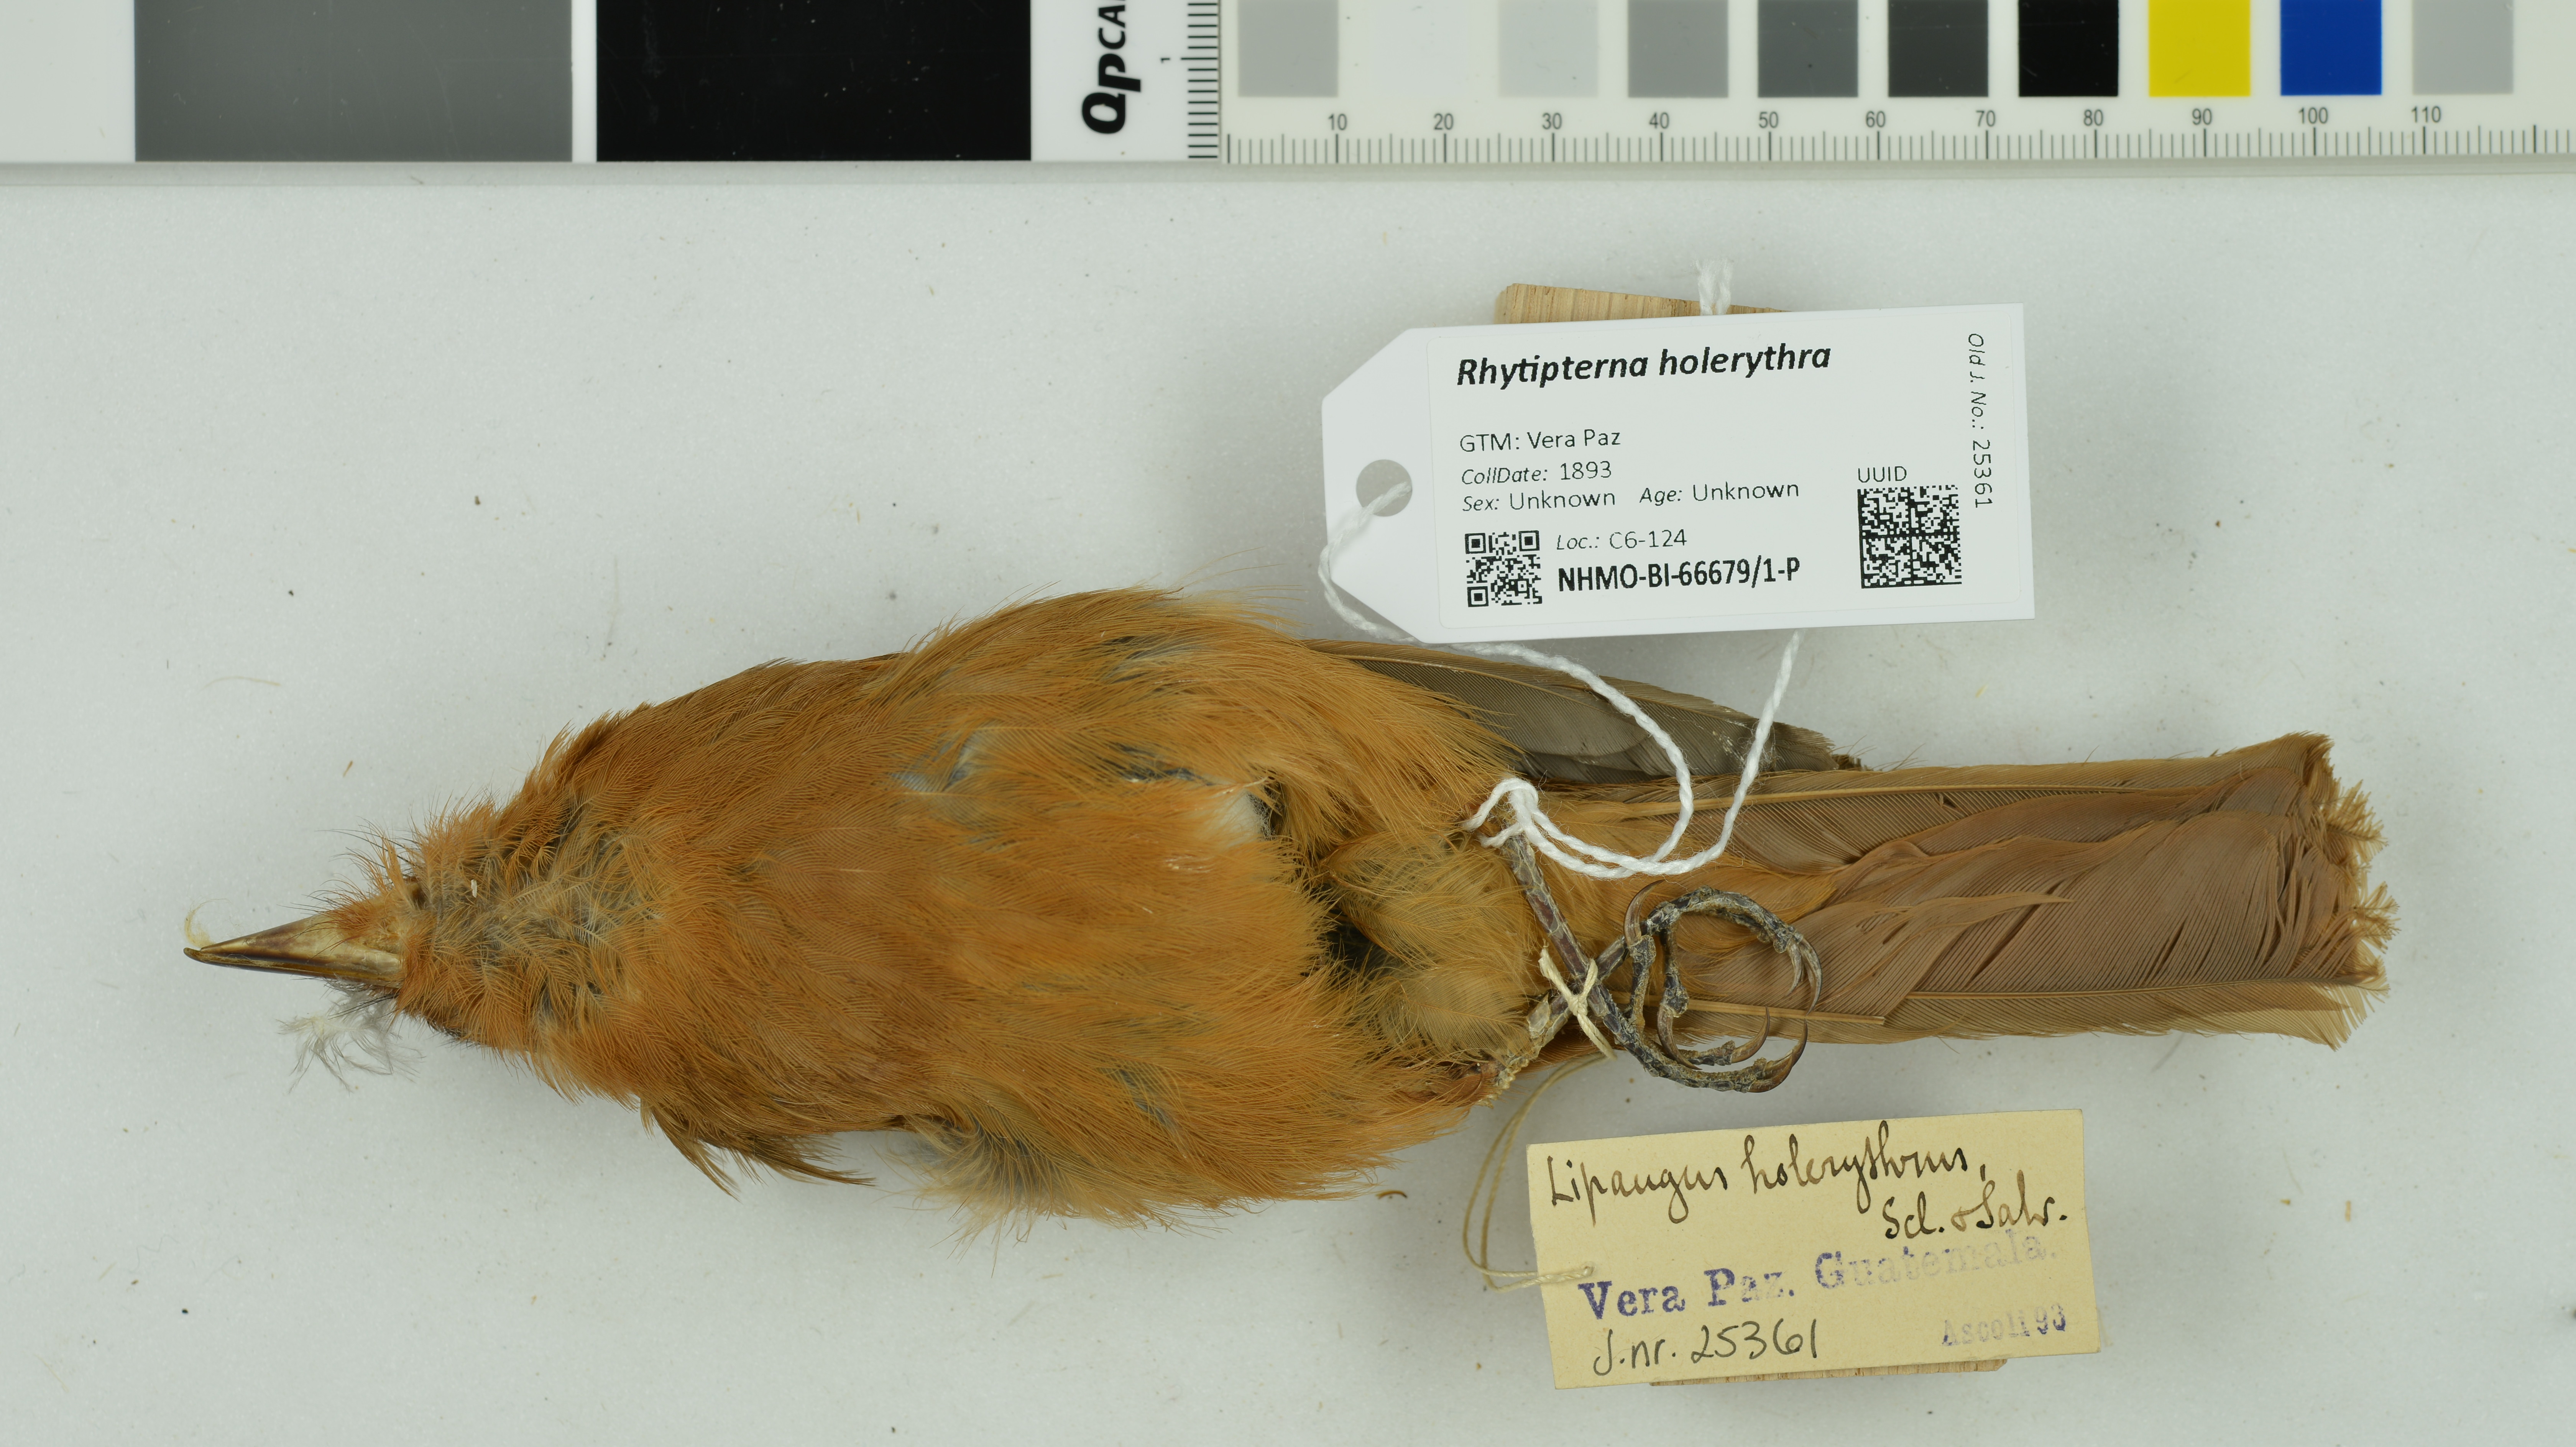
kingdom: Animalia
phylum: Chordata
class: Aves
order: Passeriformes
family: Tyrannidae
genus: Rhytipterna
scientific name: Rhytipterna holerythra
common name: Rufous mourner
